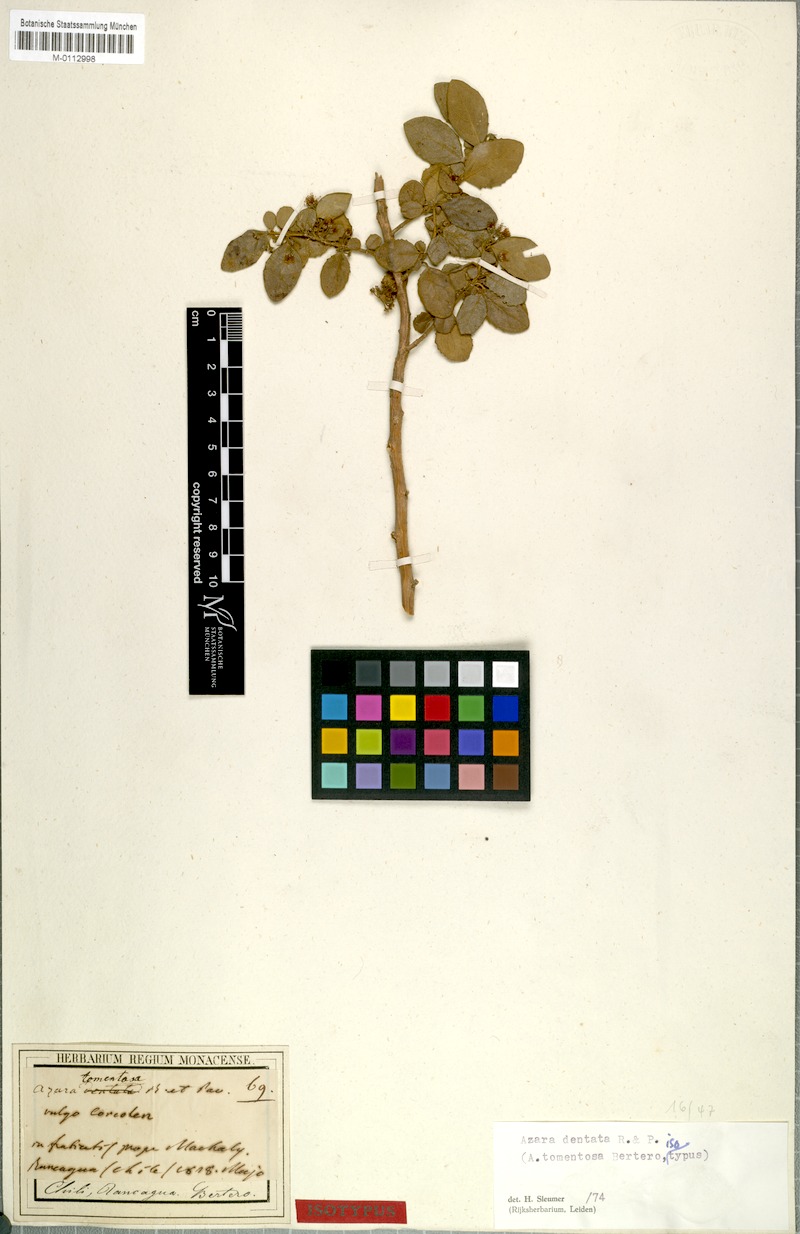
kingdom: Plantae
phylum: Tracheophyta
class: Magnoliopsida
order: Malpighiales
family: Salicaceae
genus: Azara
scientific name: Azara dentata
